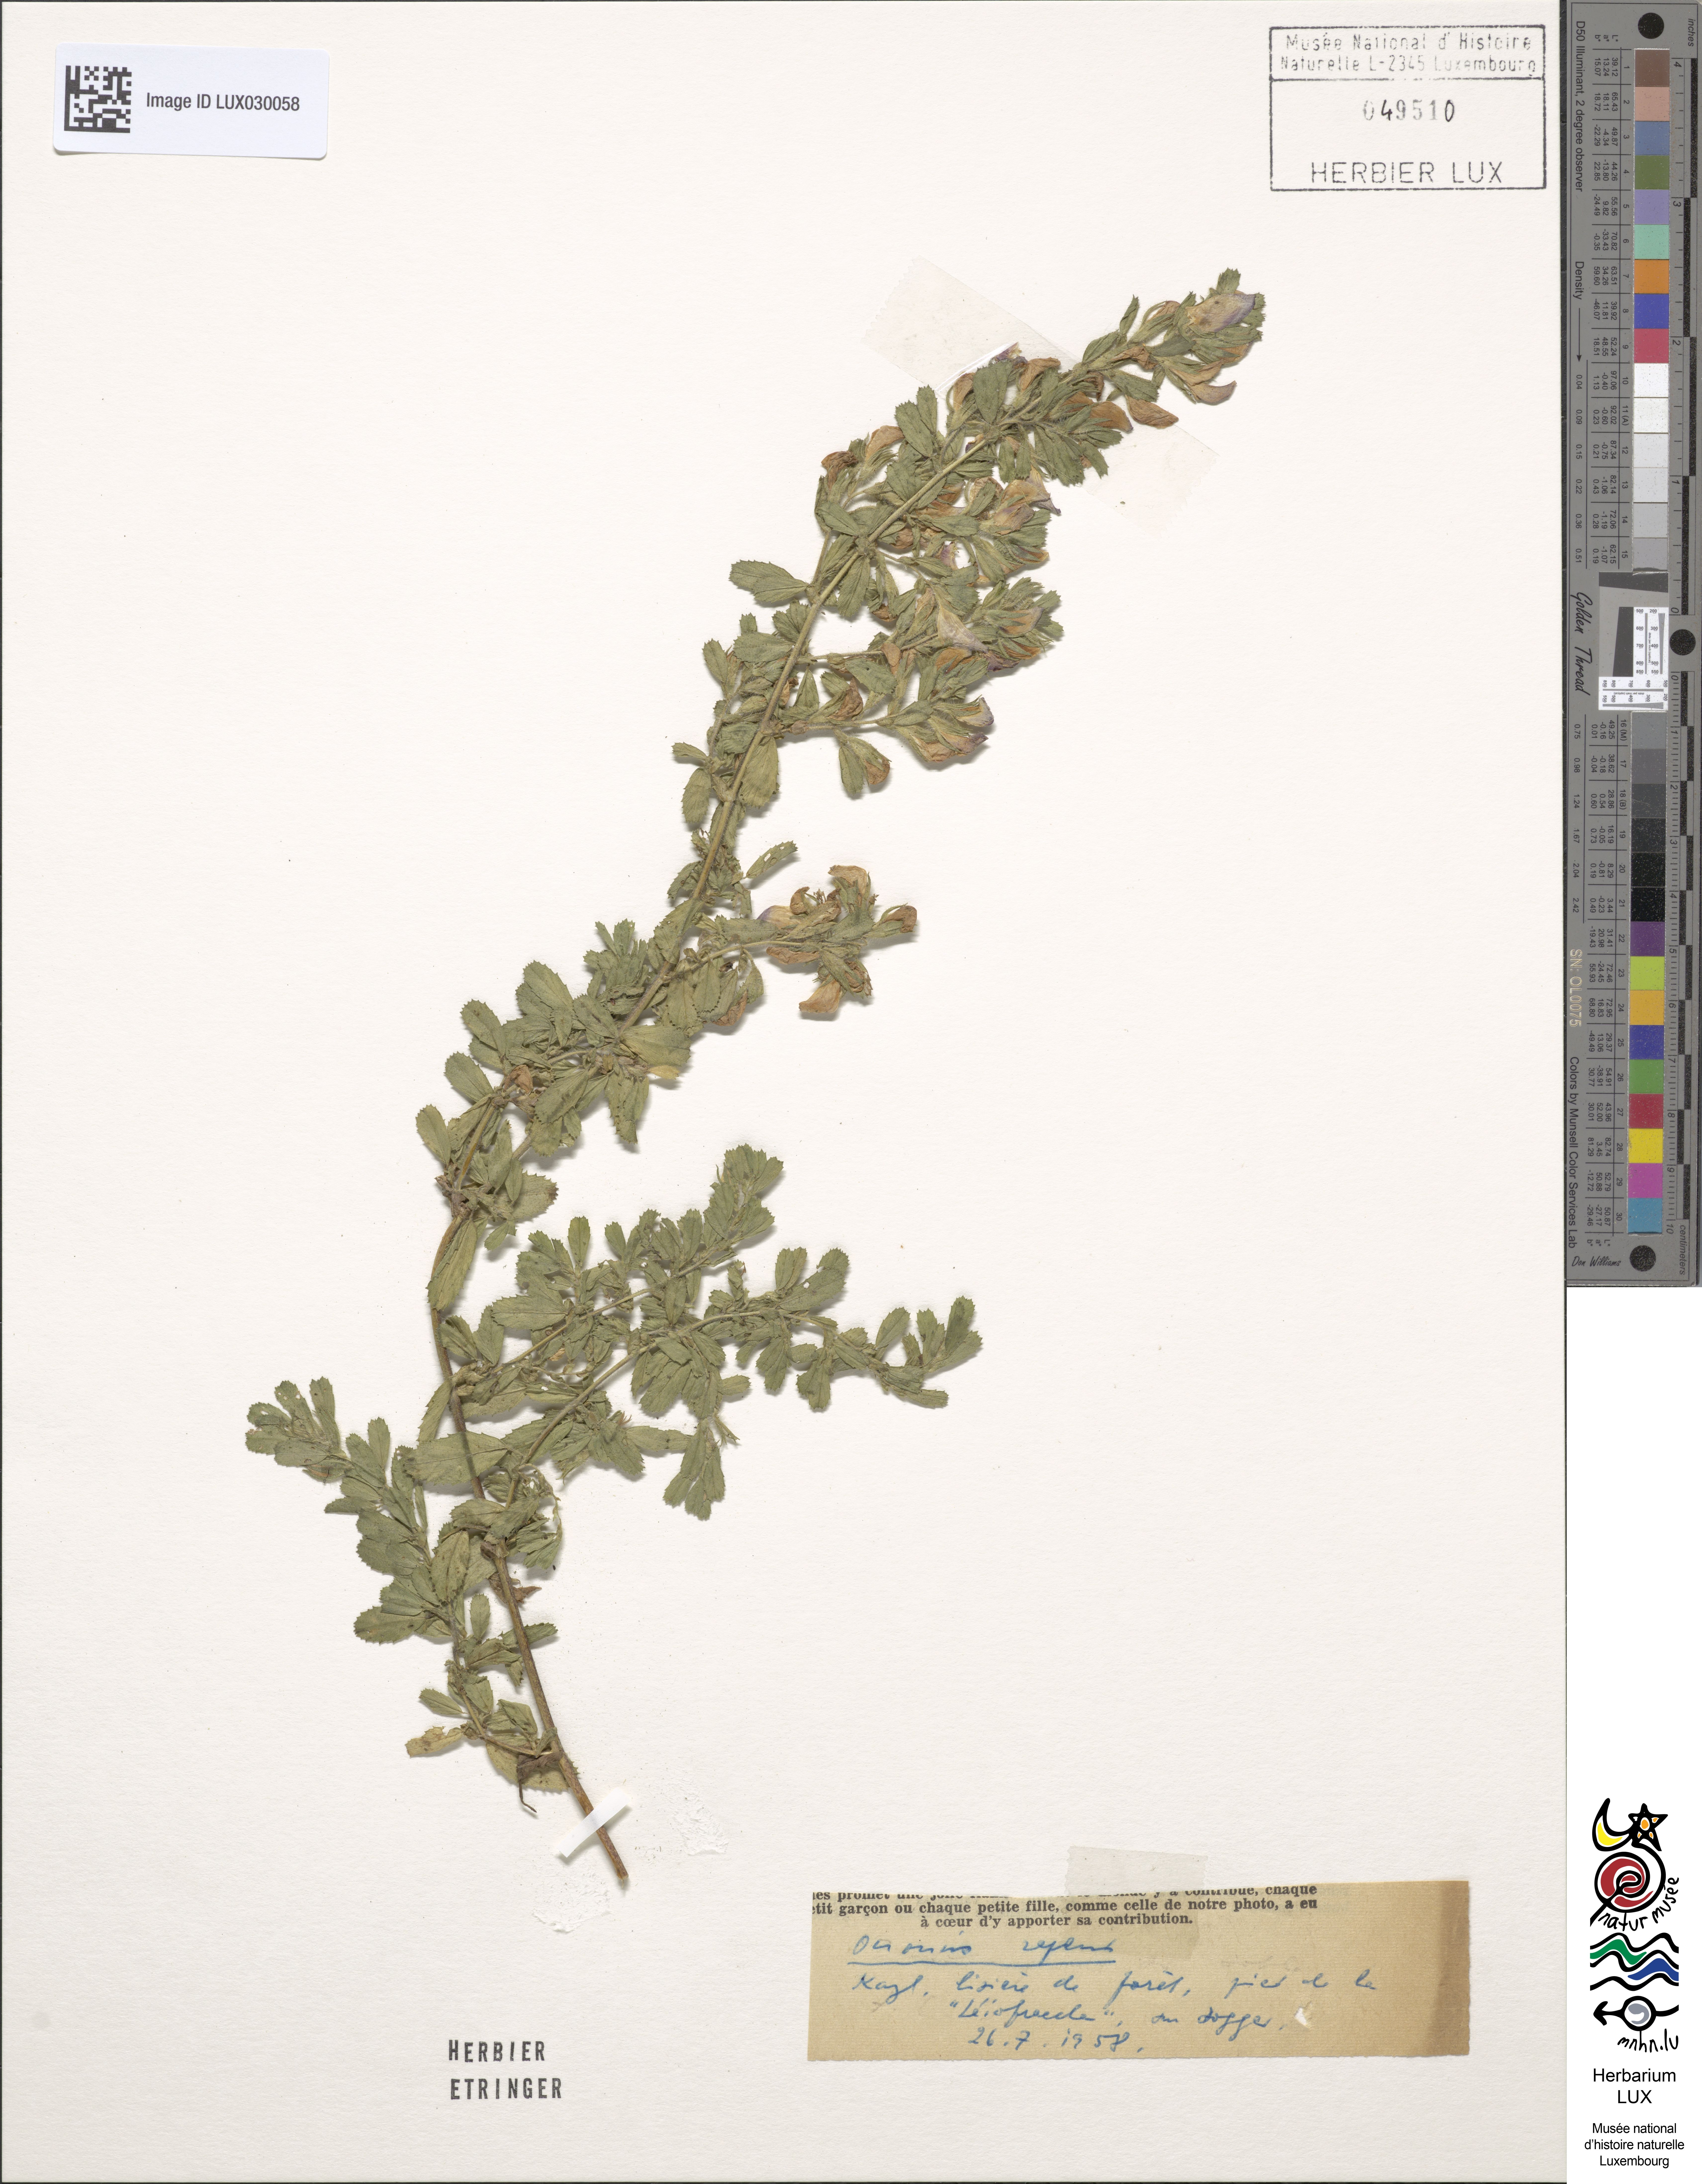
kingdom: Plantae
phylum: Tracheophyta
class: Magnoliopsida
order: Fabales
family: Fabaceae
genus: Ononis
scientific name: Ononis spinosa
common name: Spiny restharrow
